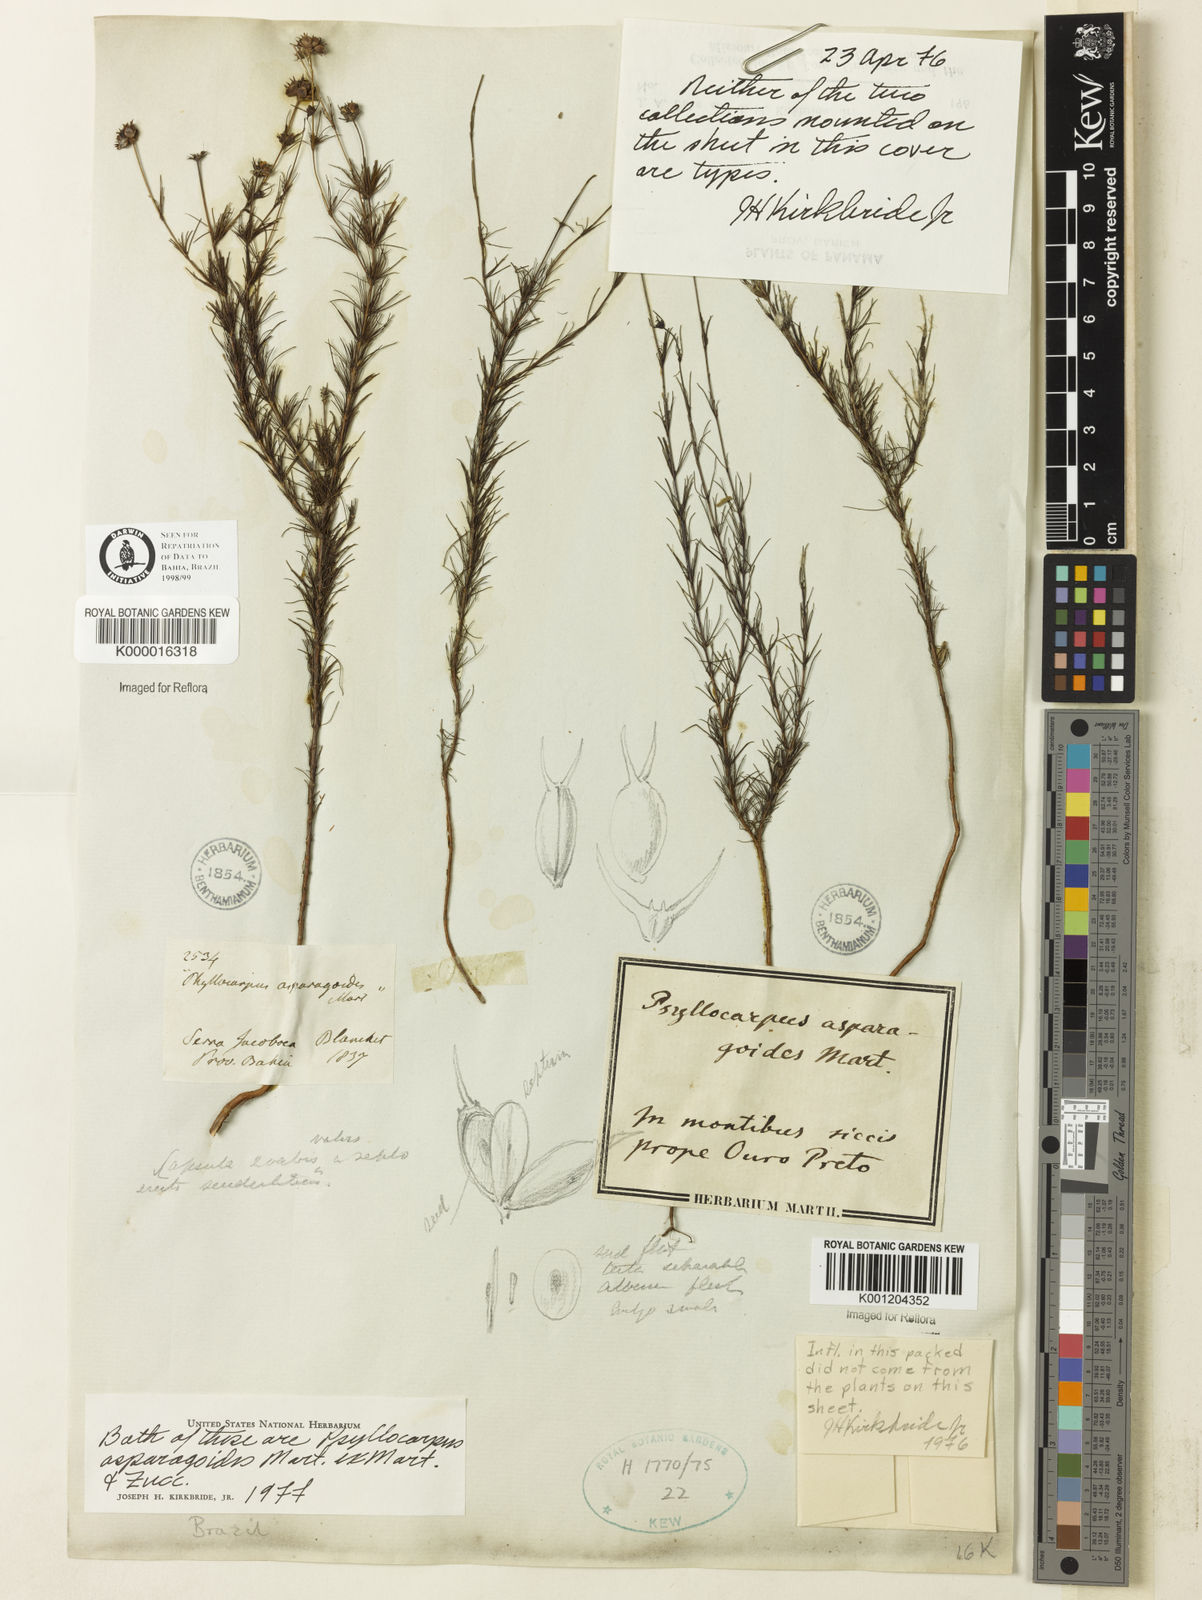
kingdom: Plantae
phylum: Tracheophyta
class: Magnoliopsida
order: Gentianales
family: Rubiaceae
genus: Psyllocarpus
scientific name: Psyllocarpus asparagoides
